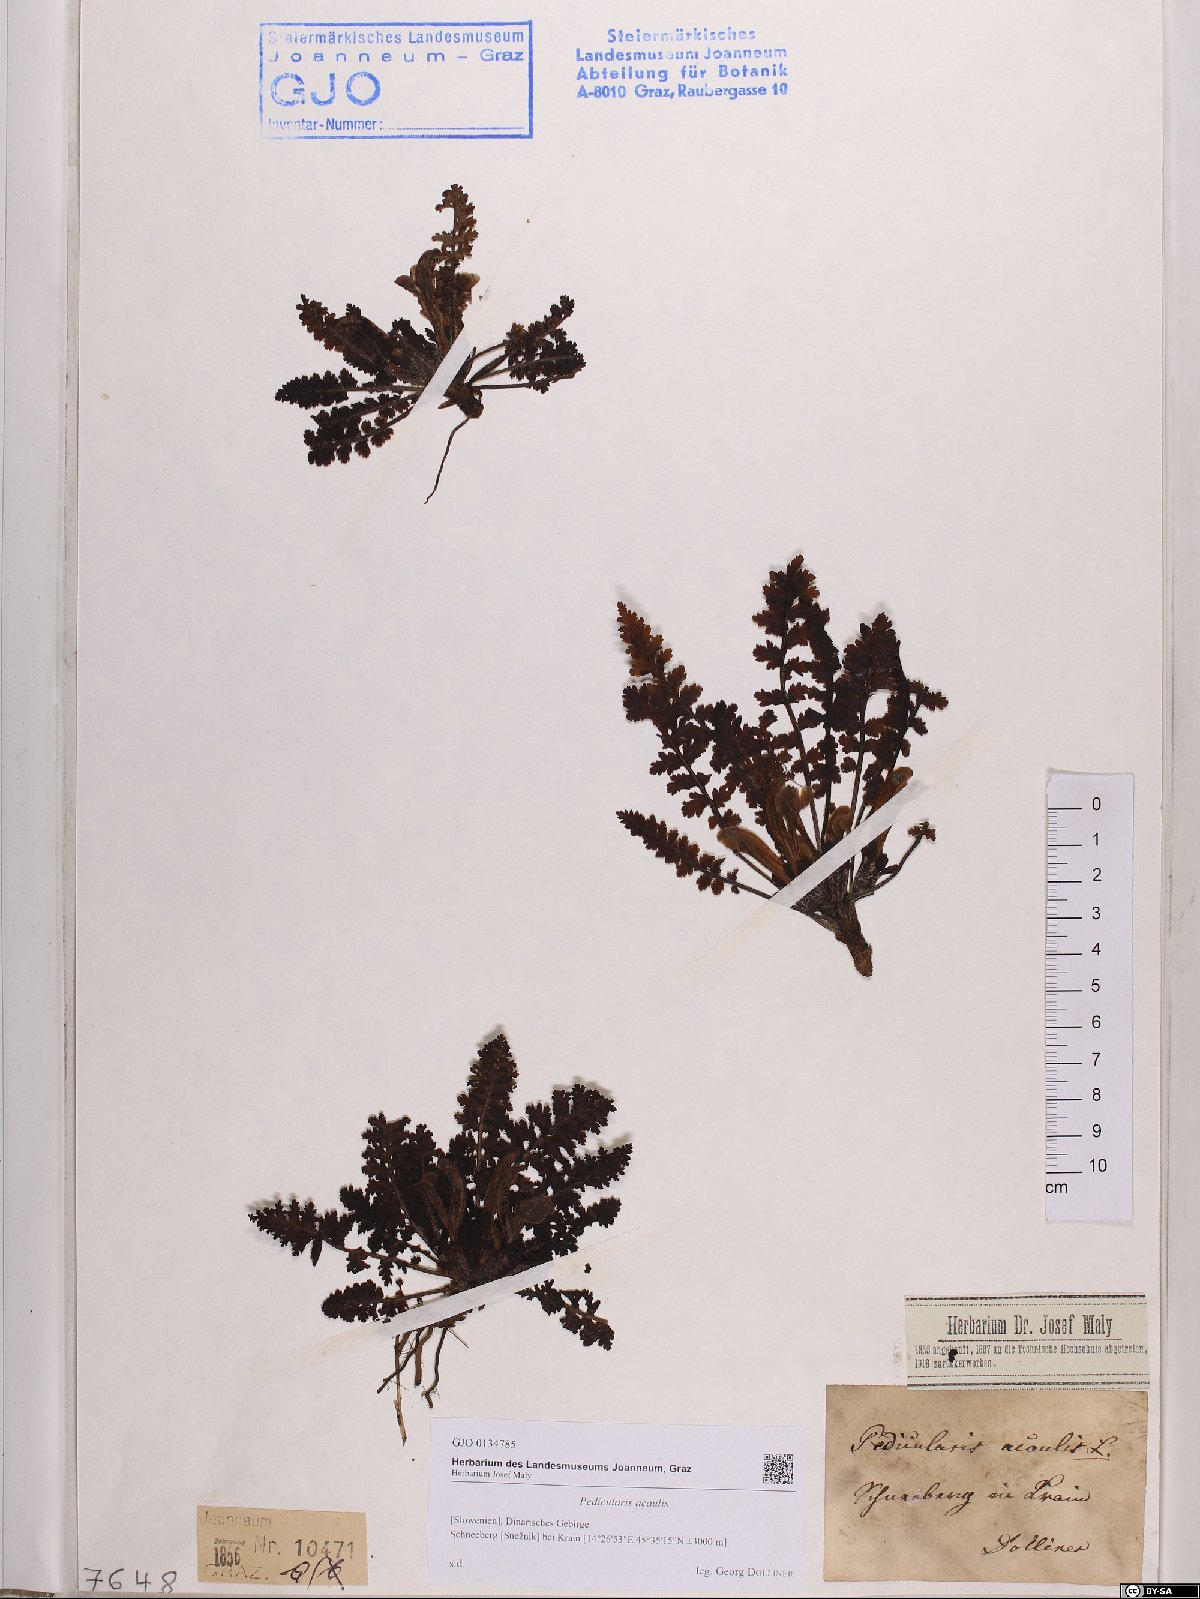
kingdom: Plantae
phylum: Tracheophyta
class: Magnoliopsida
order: Lamiales
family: Orobanchaceae
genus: Pedicularis
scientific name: Pedicularis acaulis
